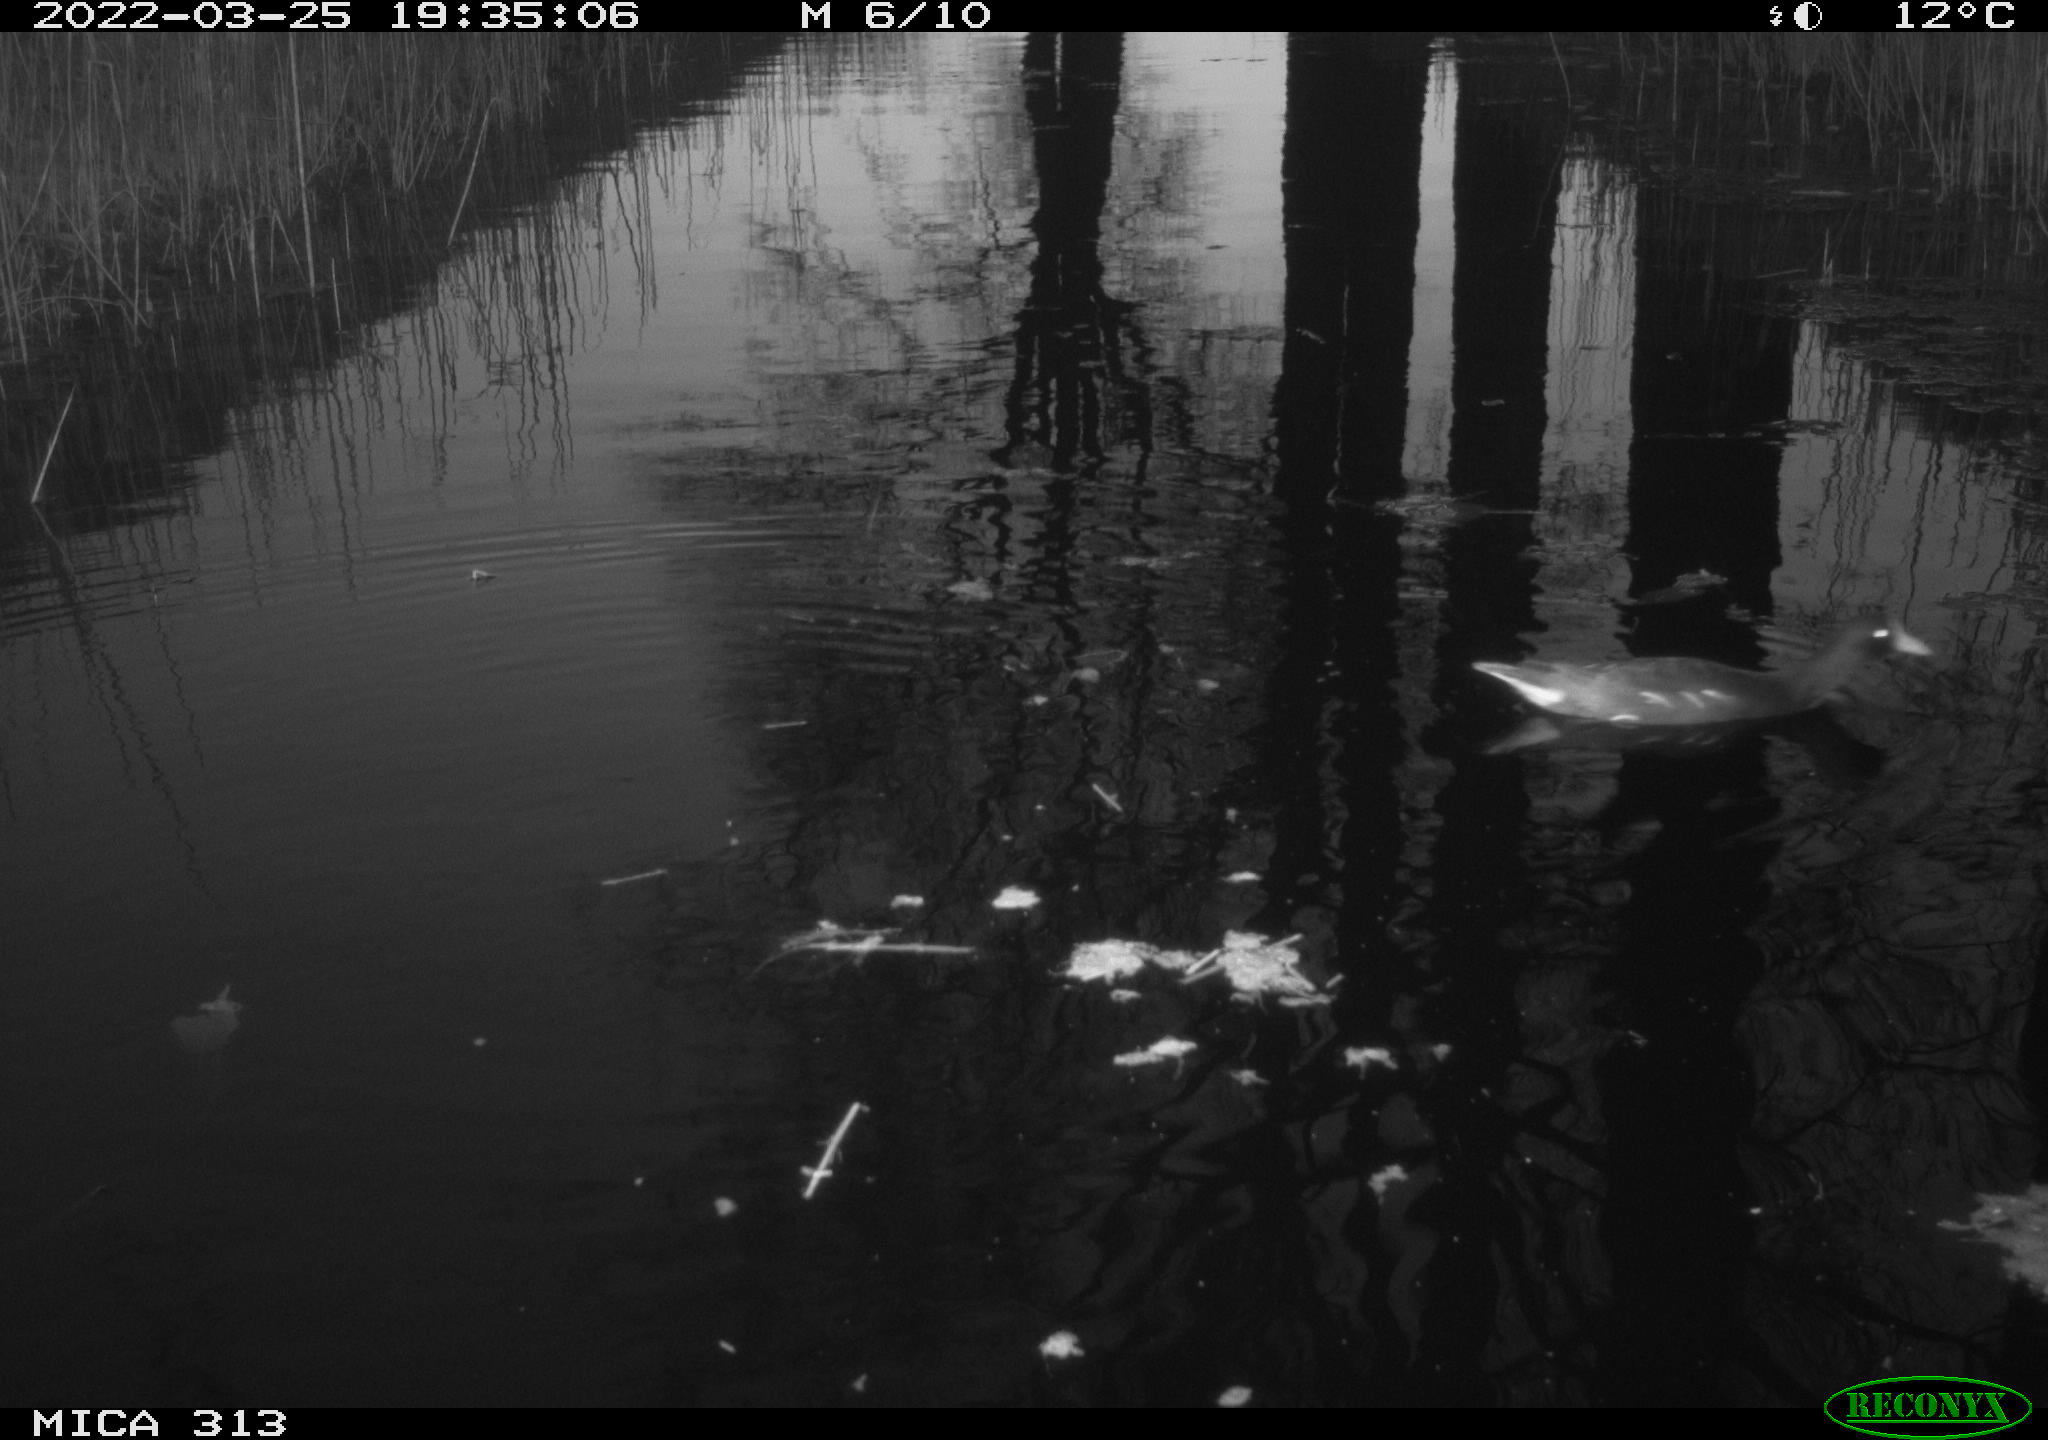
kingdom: Animalia
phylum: Chordata
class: Aves
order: Gruiformes
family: Rallidae
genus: Gallinula
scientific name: Gallinula chloropus
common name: Common moorhen
